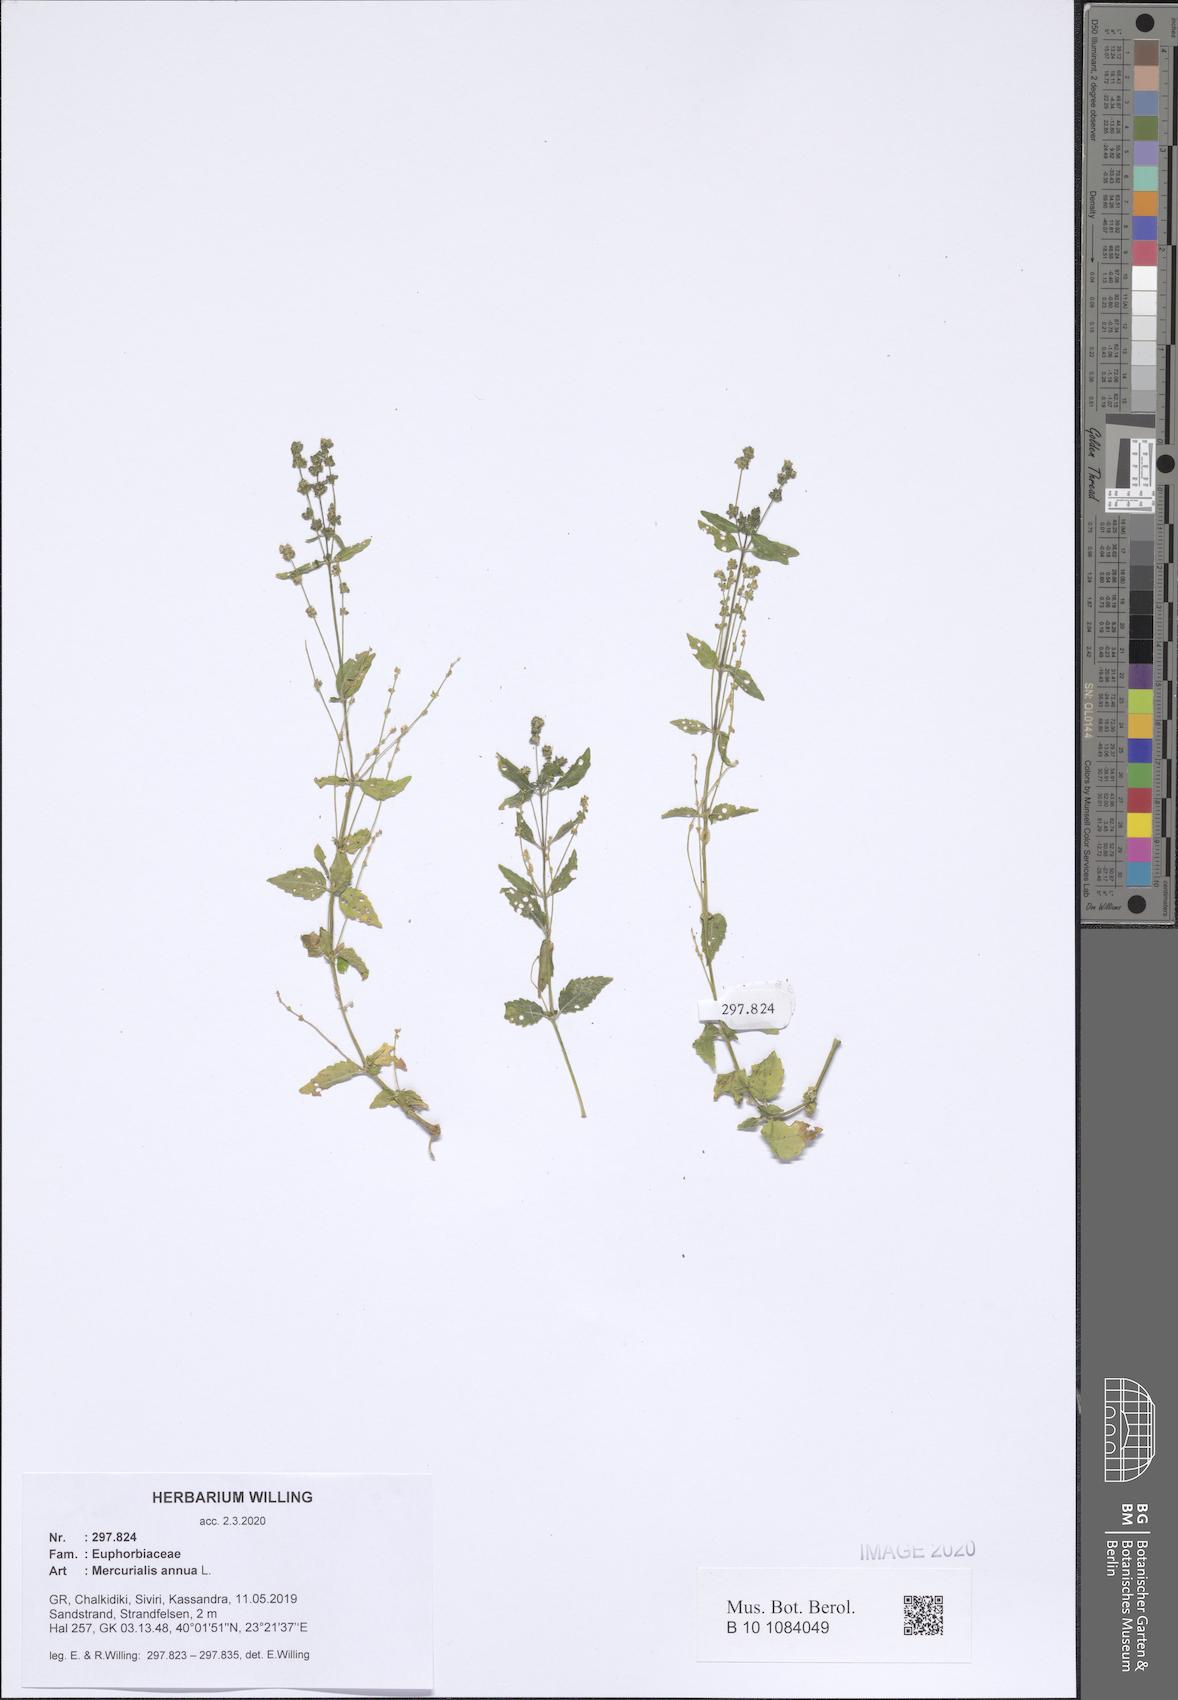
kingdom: Plantae
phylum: Tracheophyta
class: Magnoliopsida
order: Malpighiales
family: Euphorbiaceae
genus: Mercurialis
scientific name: Mercurialis annua
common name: Annual mercury
